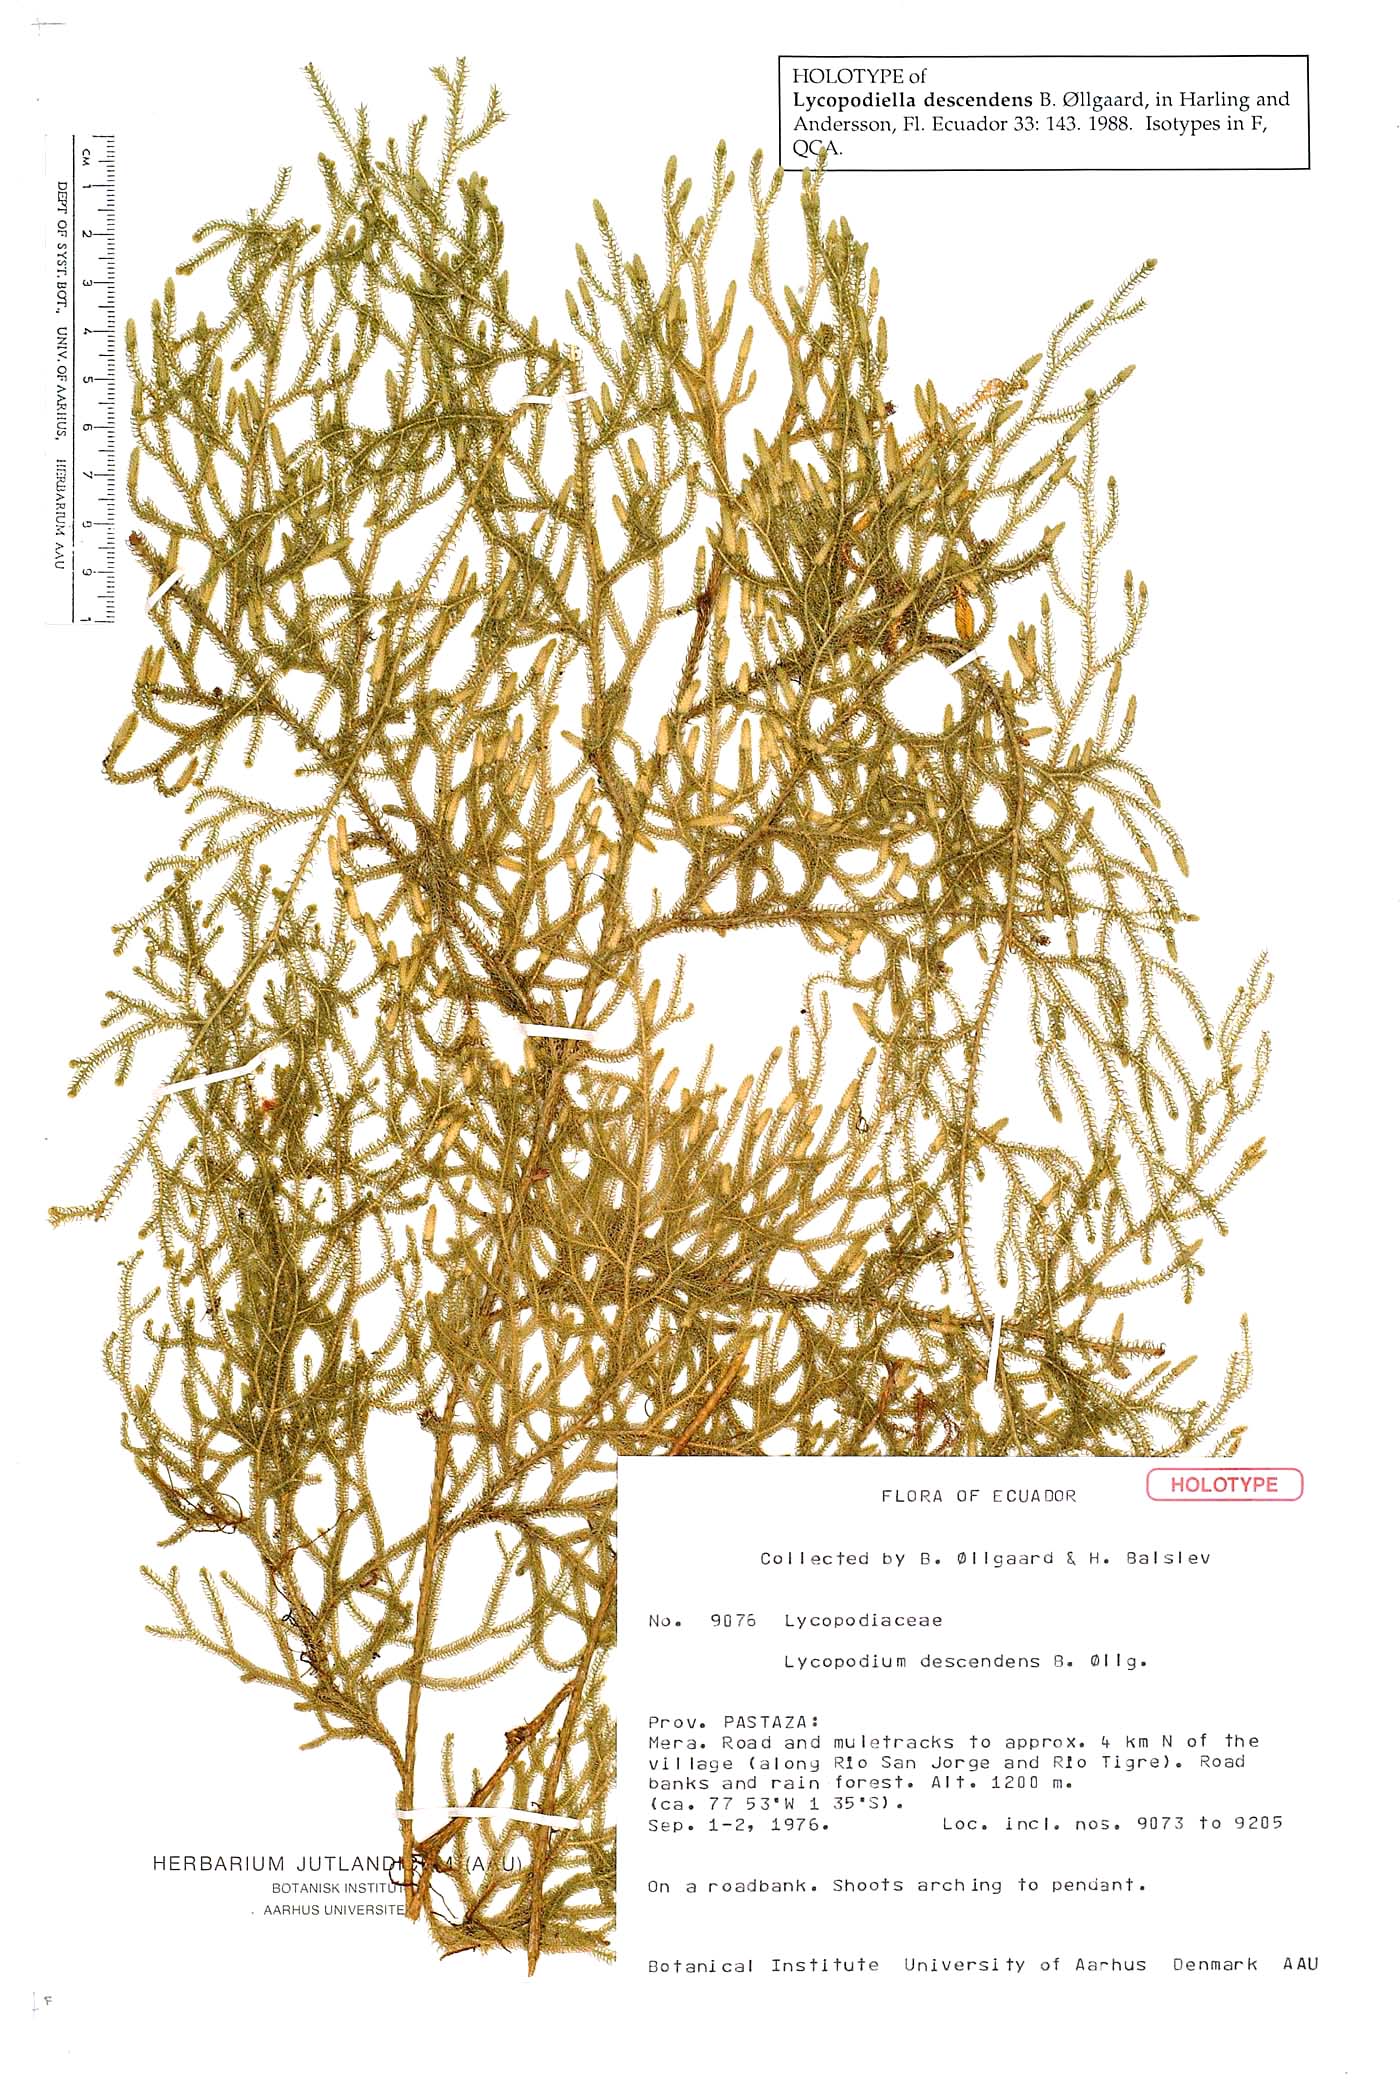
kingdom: Plantae
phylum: Tracheophyta
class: Lycopodiopsida
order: Lycopodiales
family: Lycopodiaceae
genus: Palhinhaea
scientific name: Palhinhaea descendens
